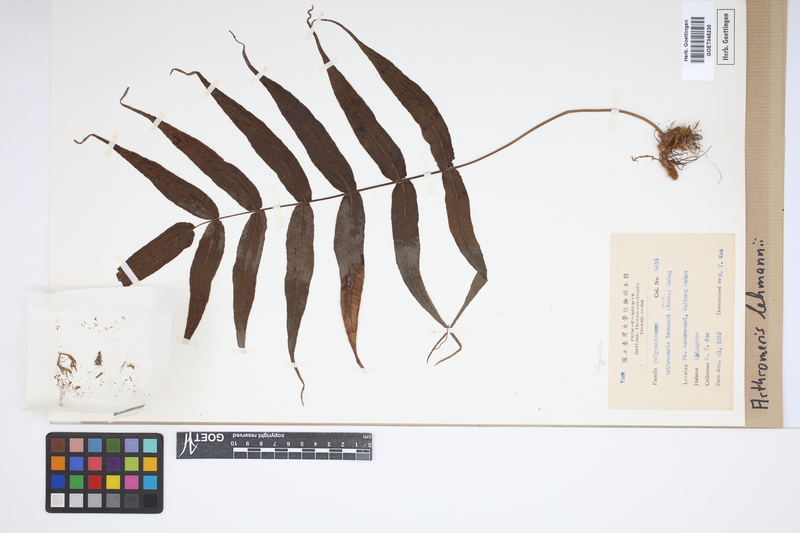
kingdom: Plantae
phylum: Tracheophyta
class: Polypodiopsida
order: Polypodiales
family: Polypodiaceae
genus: Selliguea
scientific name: Selliguea lehmannii
